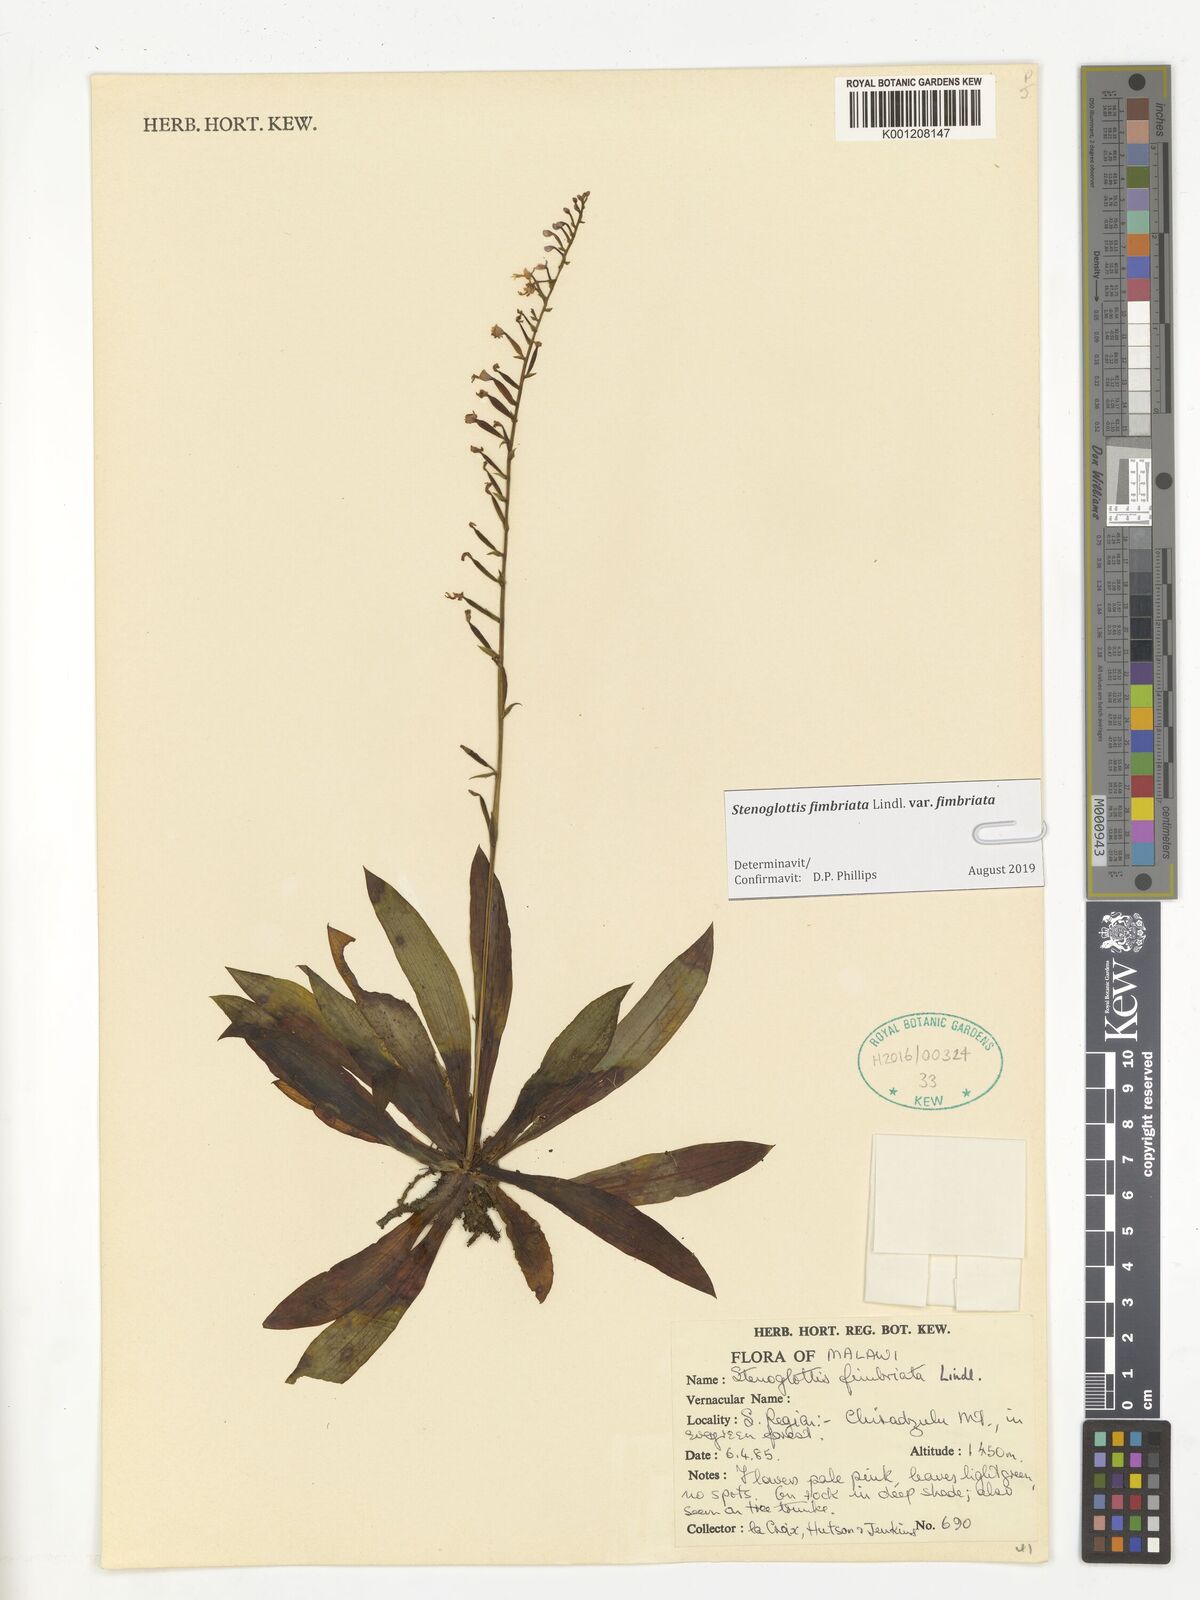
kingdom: Plantae
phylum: Tracheophyta
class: Liliopsida
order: Asparagales
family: Orchidaceae
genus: Stenoglottis
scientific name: Stenoglottis fimbriata
